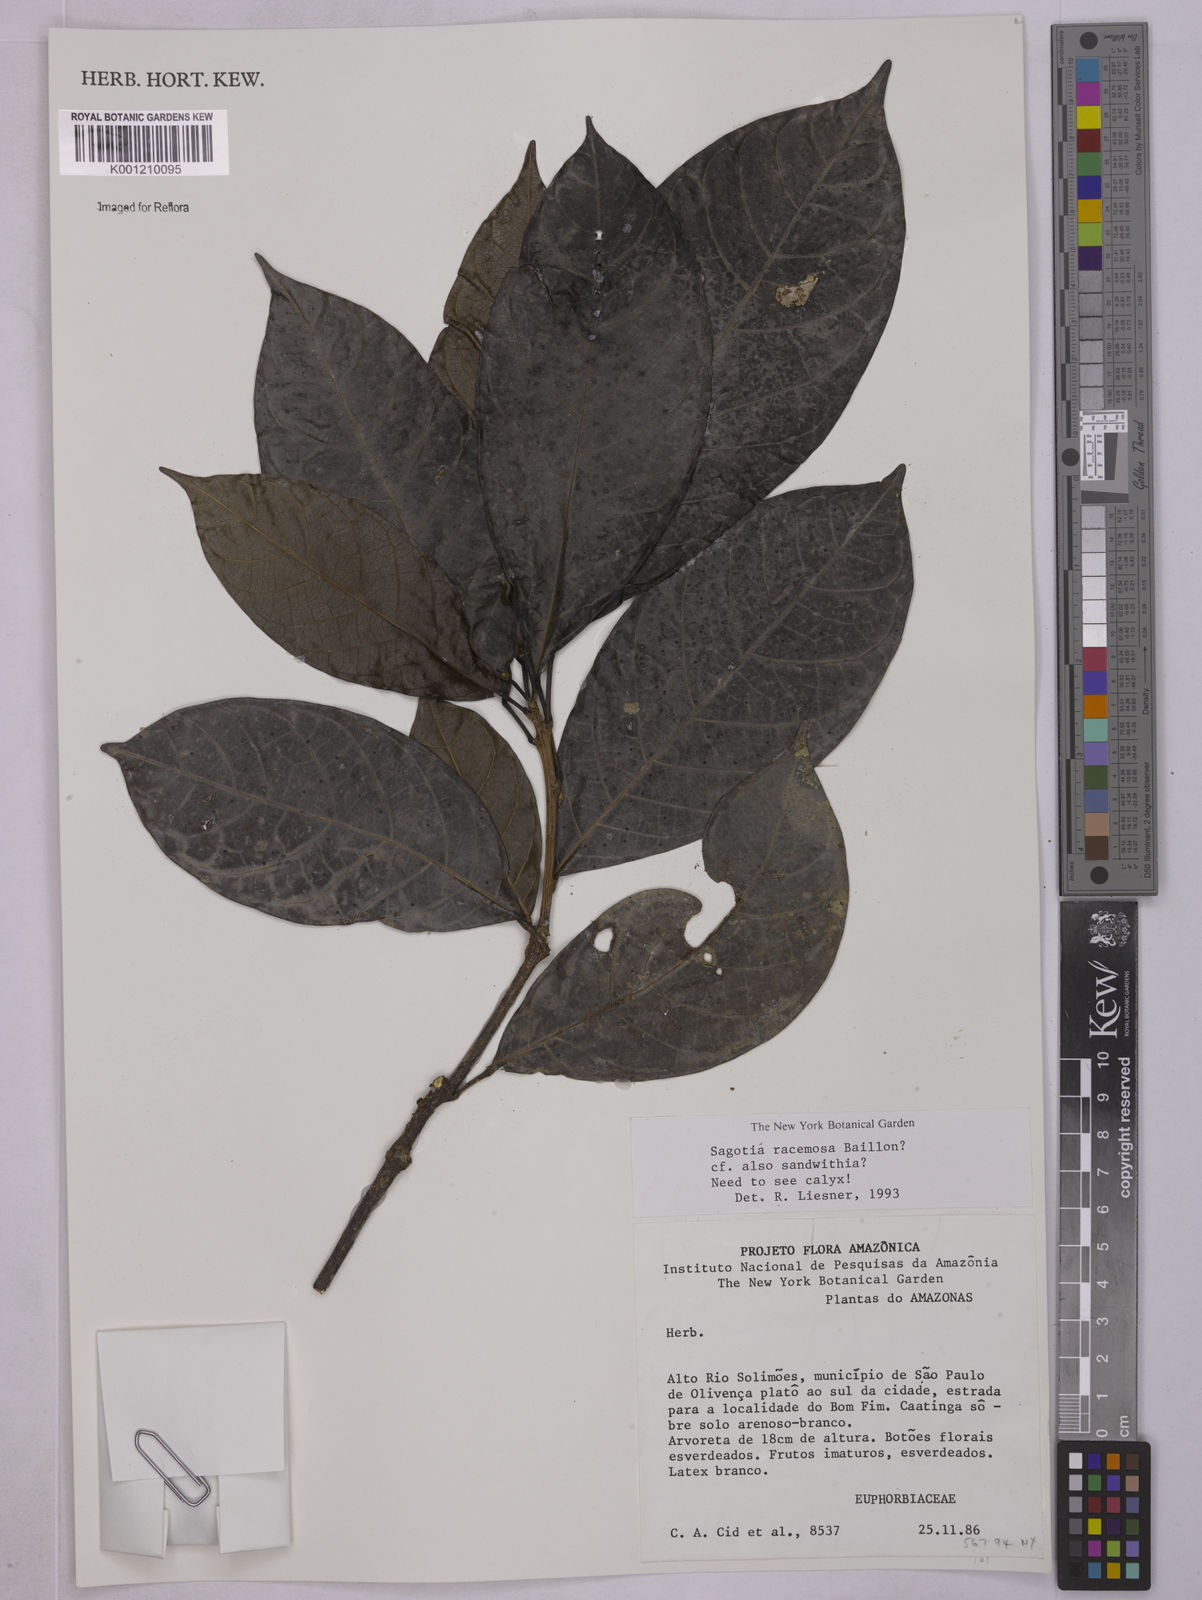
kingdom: Plantae
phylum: Tracheophyta
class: Magnoliopsida
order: Malpighiales
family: Euphorbiaceae
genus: Sagotia
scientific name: Sagotia racemosa
